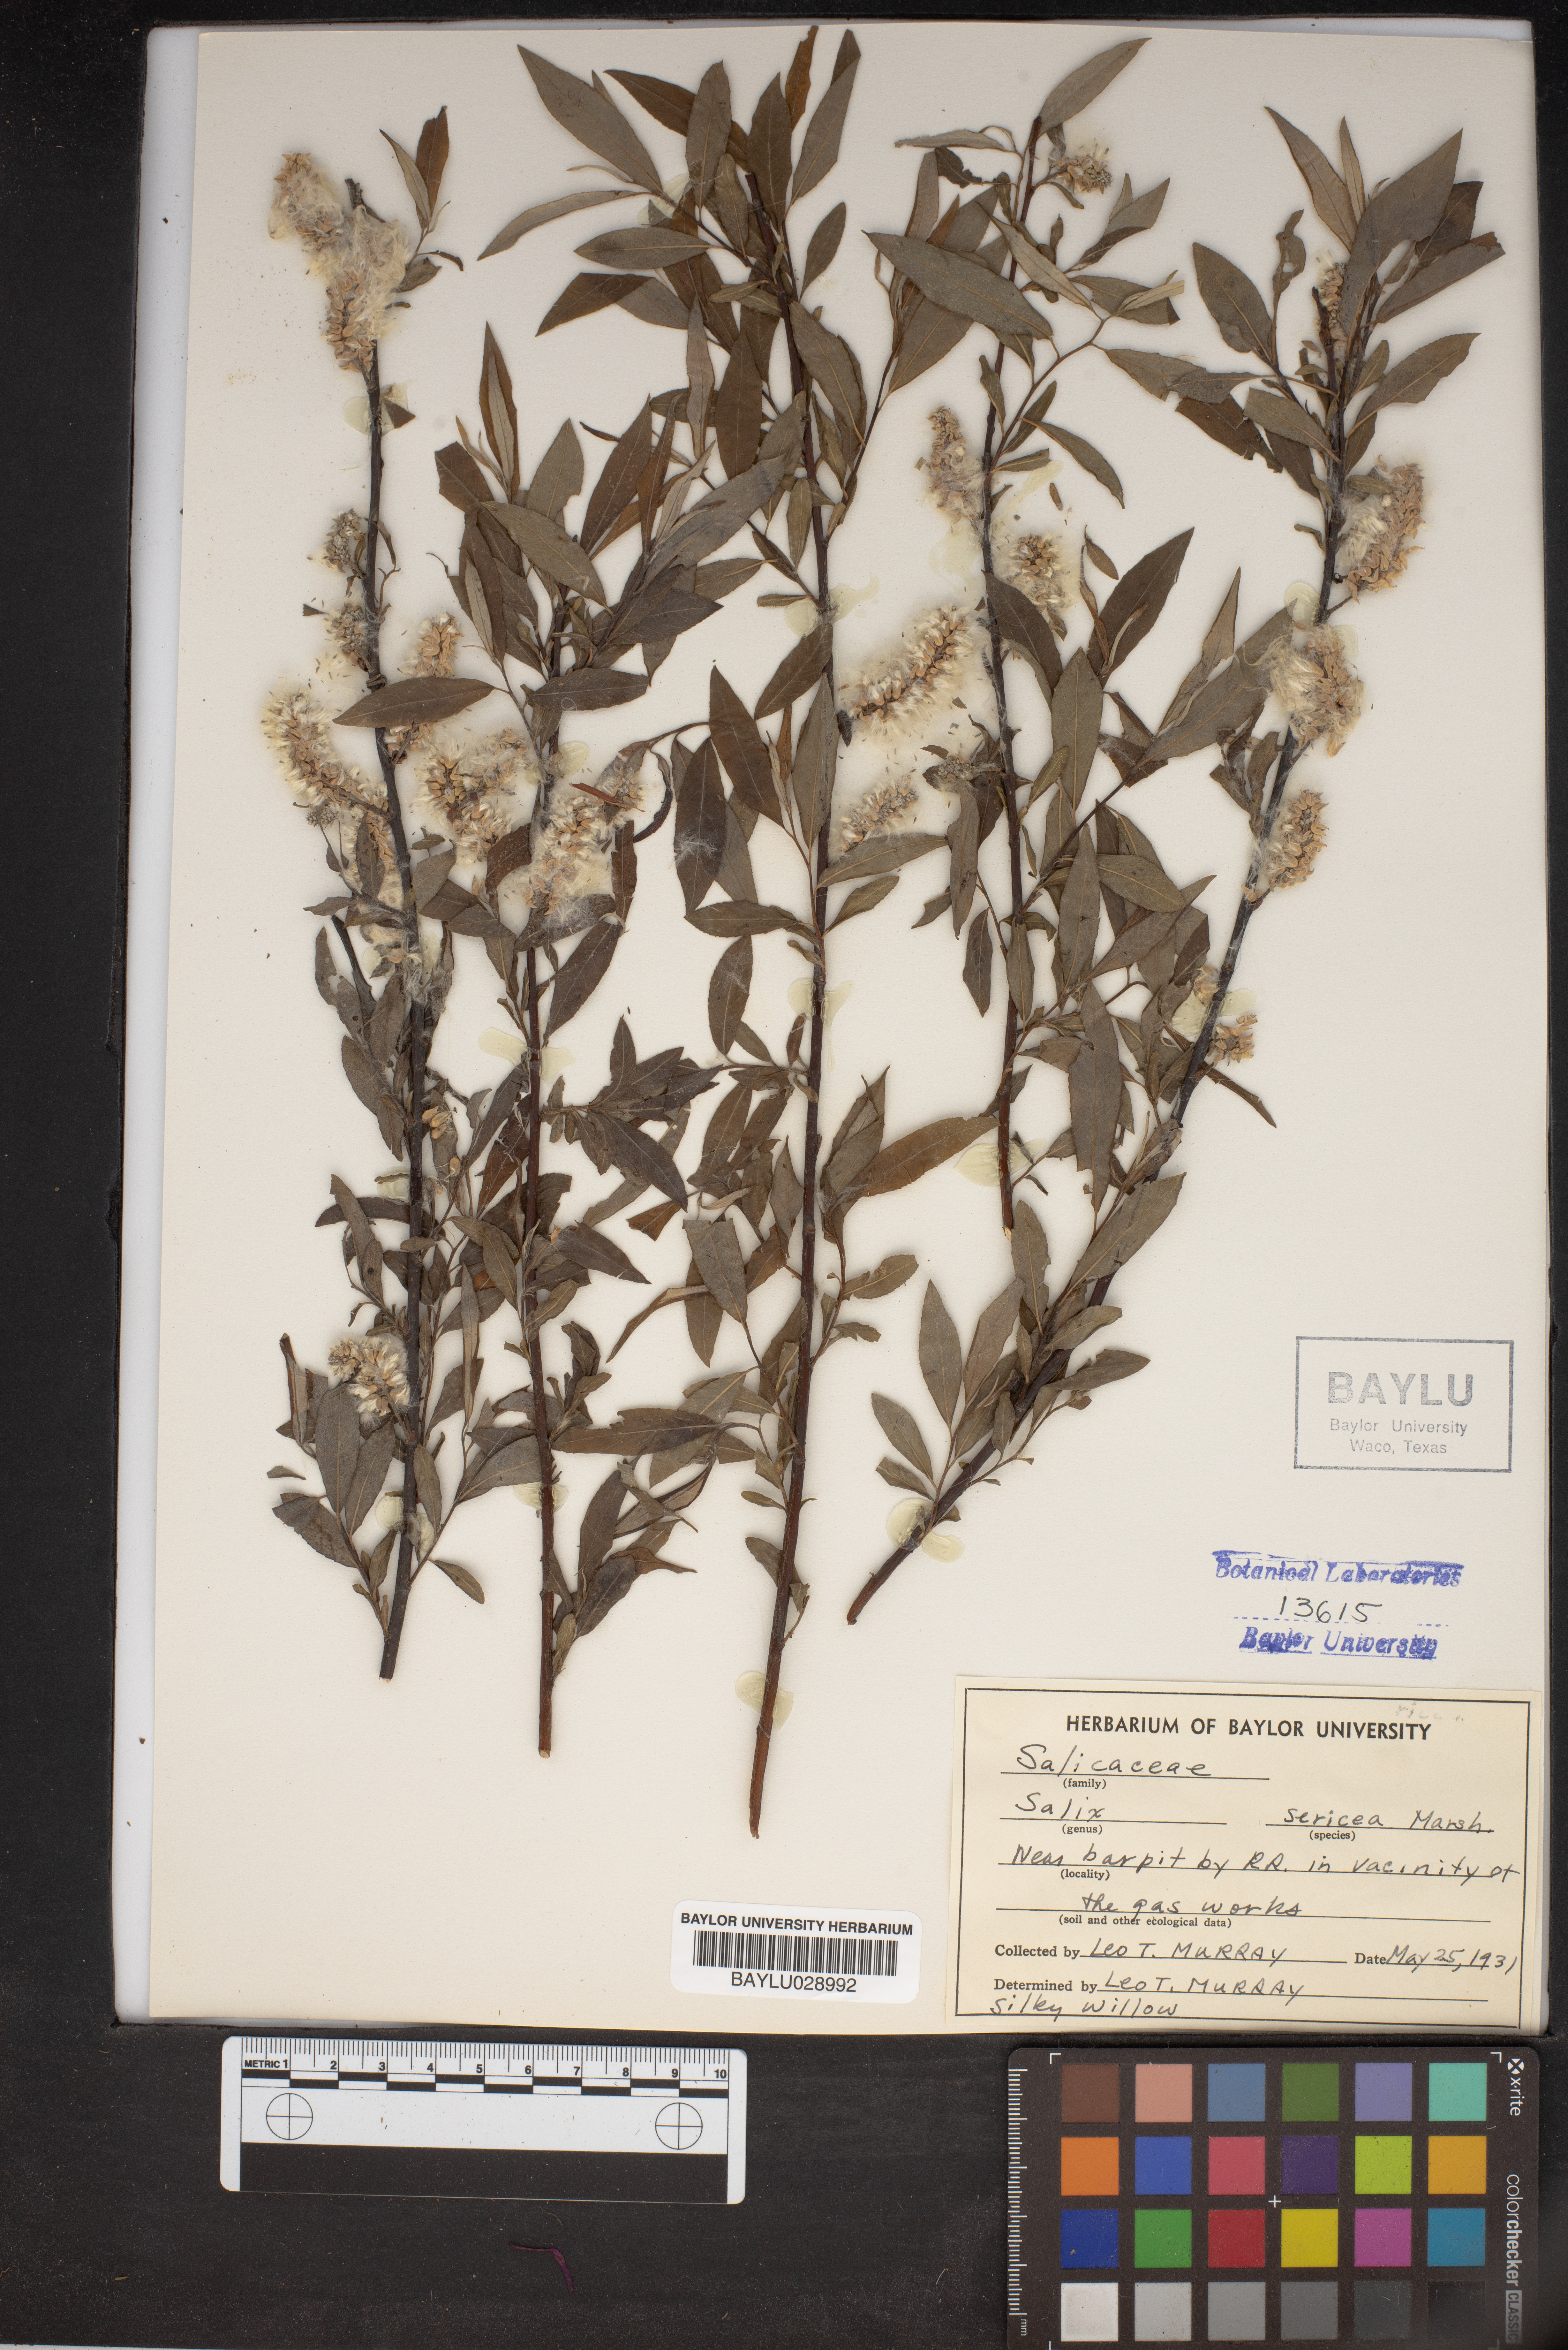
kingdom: Plantae
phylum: Tracheophyta
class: Magnoliopsida
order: Malpighiales
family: Salicaceae
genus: Salix
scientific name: Salix sericea
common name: Silky willow
